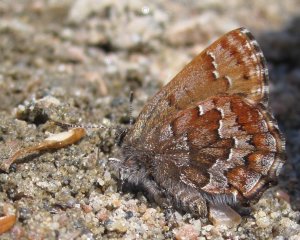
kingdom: Animalia
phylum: Arthropoda
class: Insecta
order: Lepidoptera
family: Lycaenidae
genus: Incisalia
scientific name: Incisalia niphon
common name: Eastern Pine Elfin
